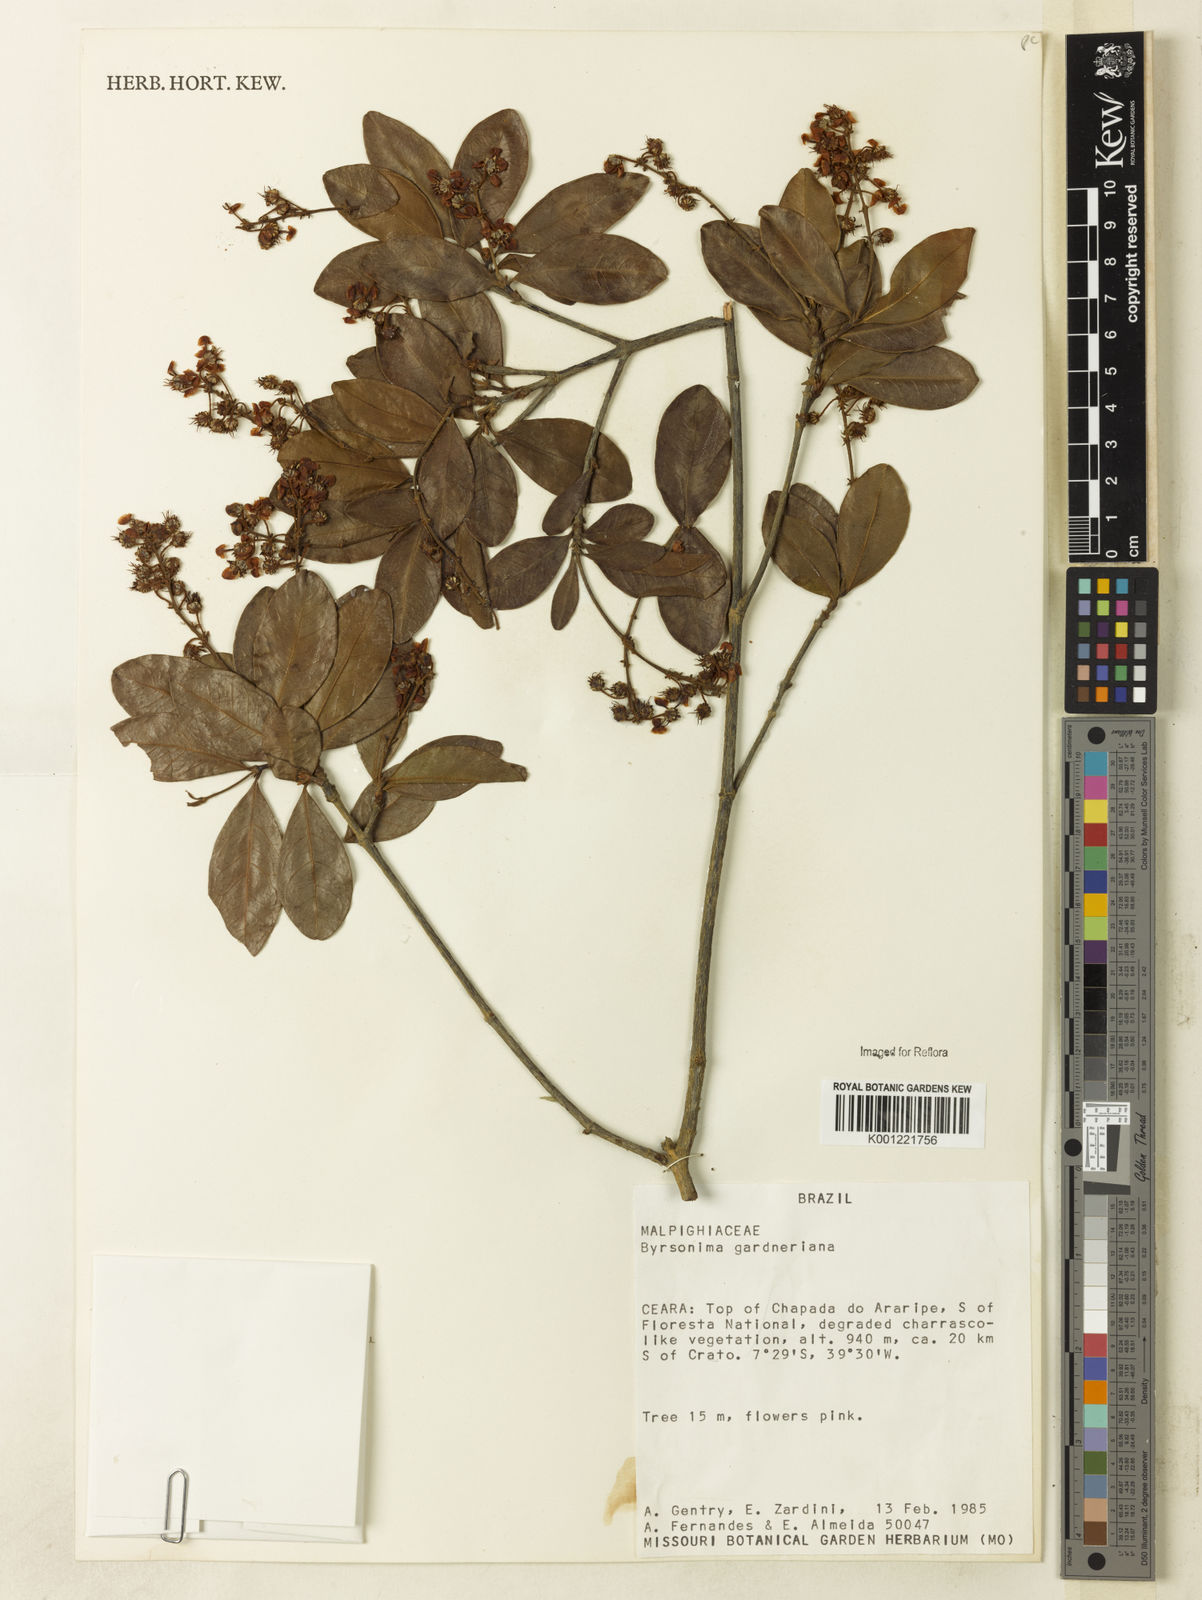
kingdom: Plantae
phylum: Tracheophyta
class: Magnoliopsida
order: Malpighiales
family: Malpighiaceae
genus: Byrsonima
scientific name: Byrsonima gardneriana
